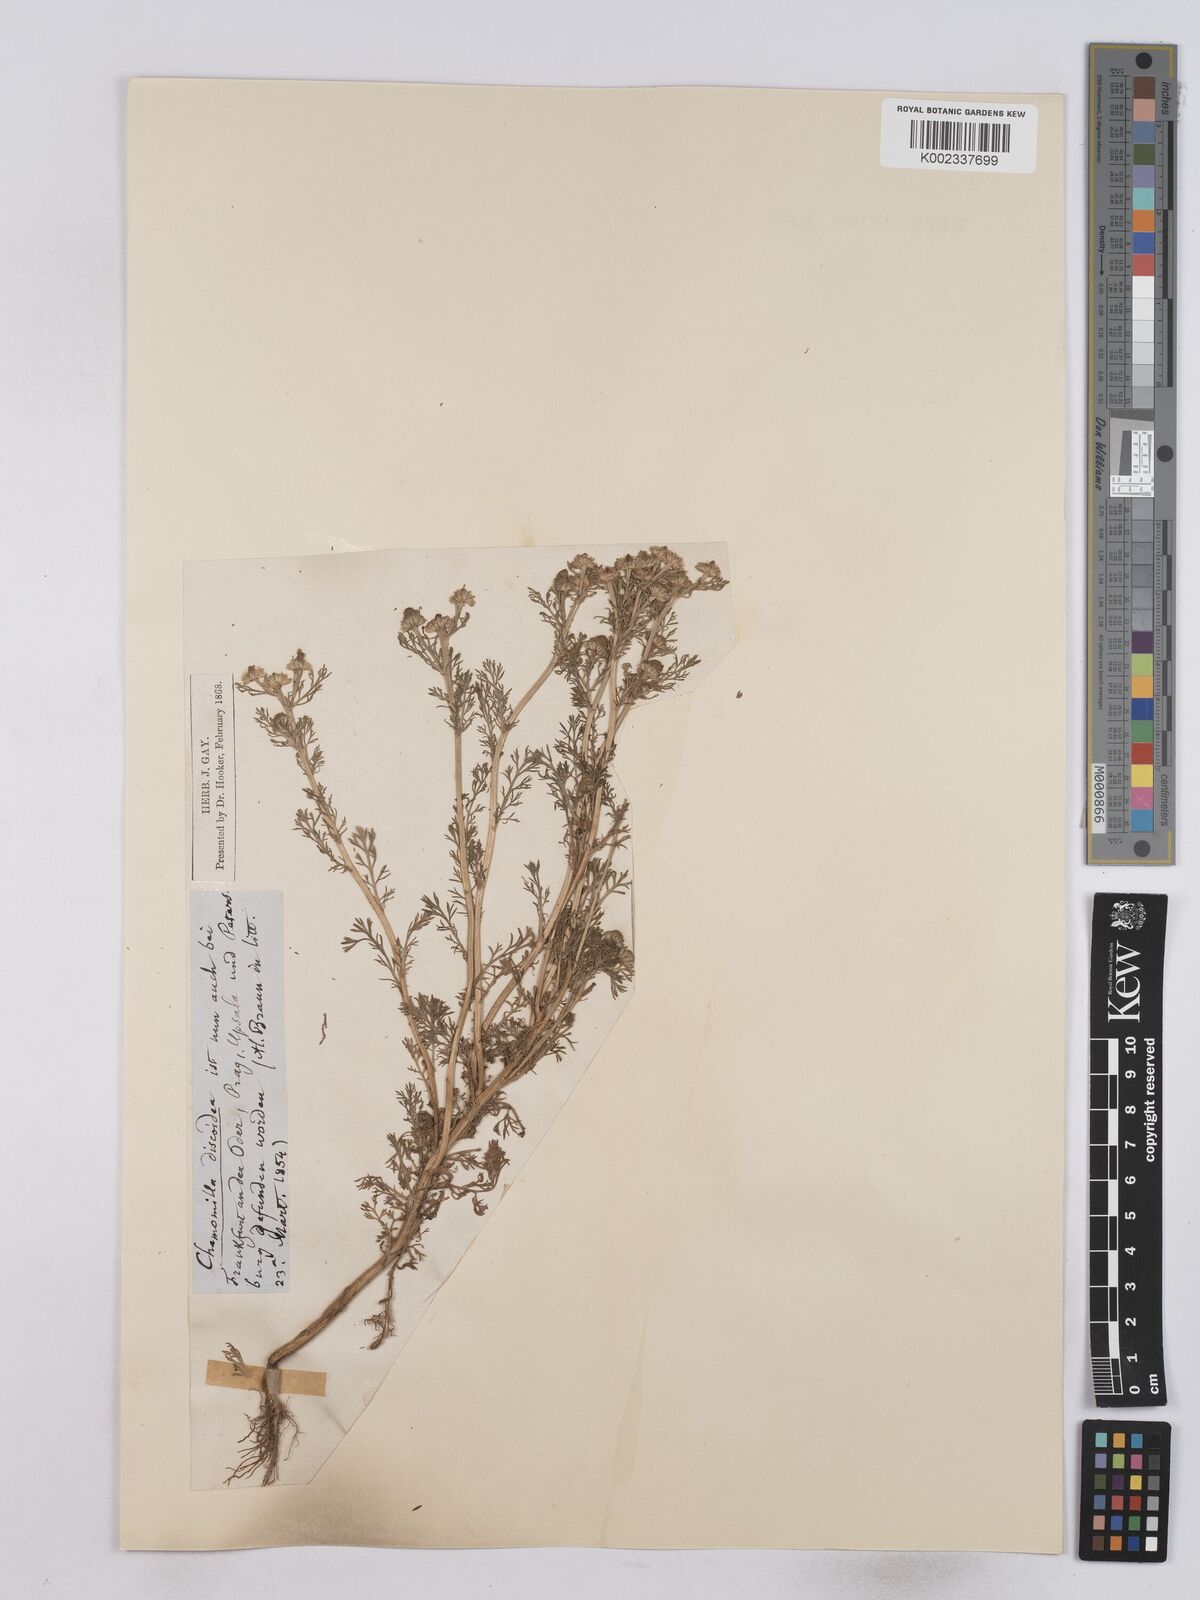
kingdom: Plantae
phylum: Tracheophyta
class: Magnoliopsida
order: Asterales
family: Asteraceae
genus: Matricaria
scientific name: Matricaria discoidea
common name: Disc mayweed
